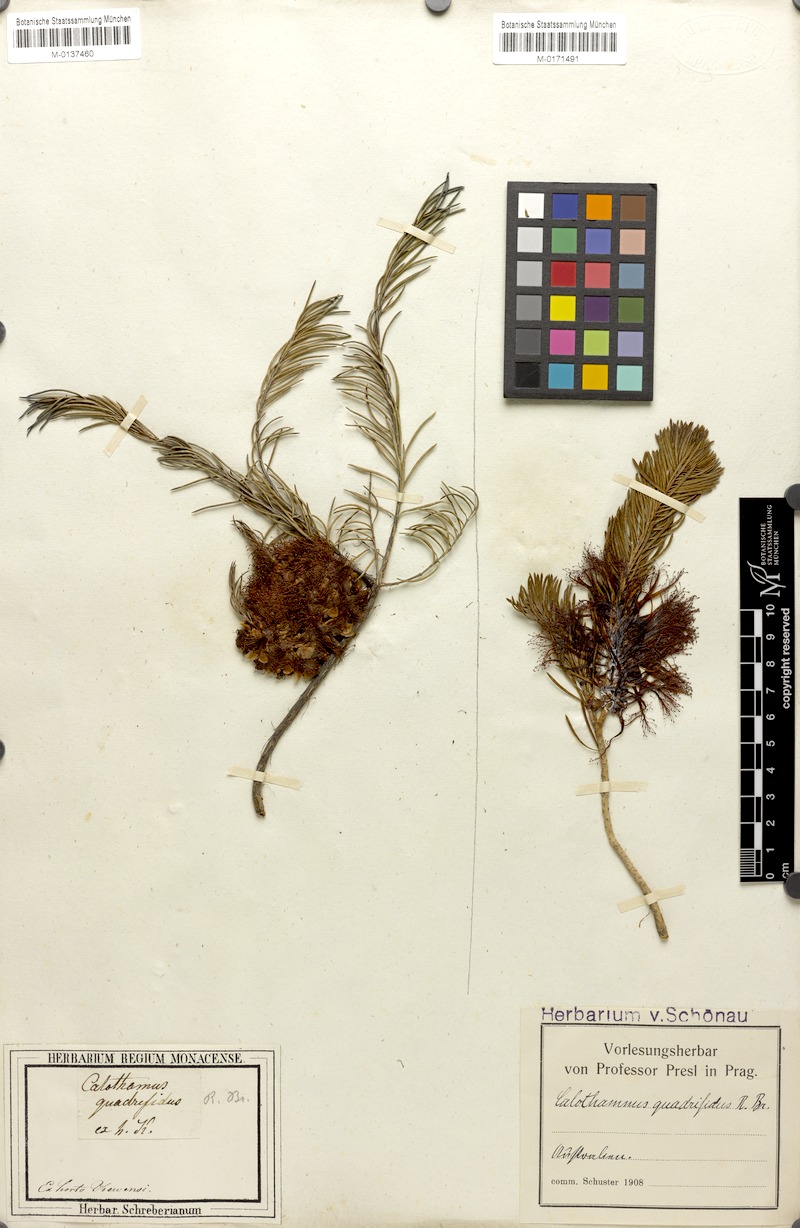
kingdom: Plantae
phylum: Tracheophyta
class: Magnoliopsida
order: Myrtales
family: Myrtaceae
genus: Melaleuca
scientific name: Melaleuca quadrifida
